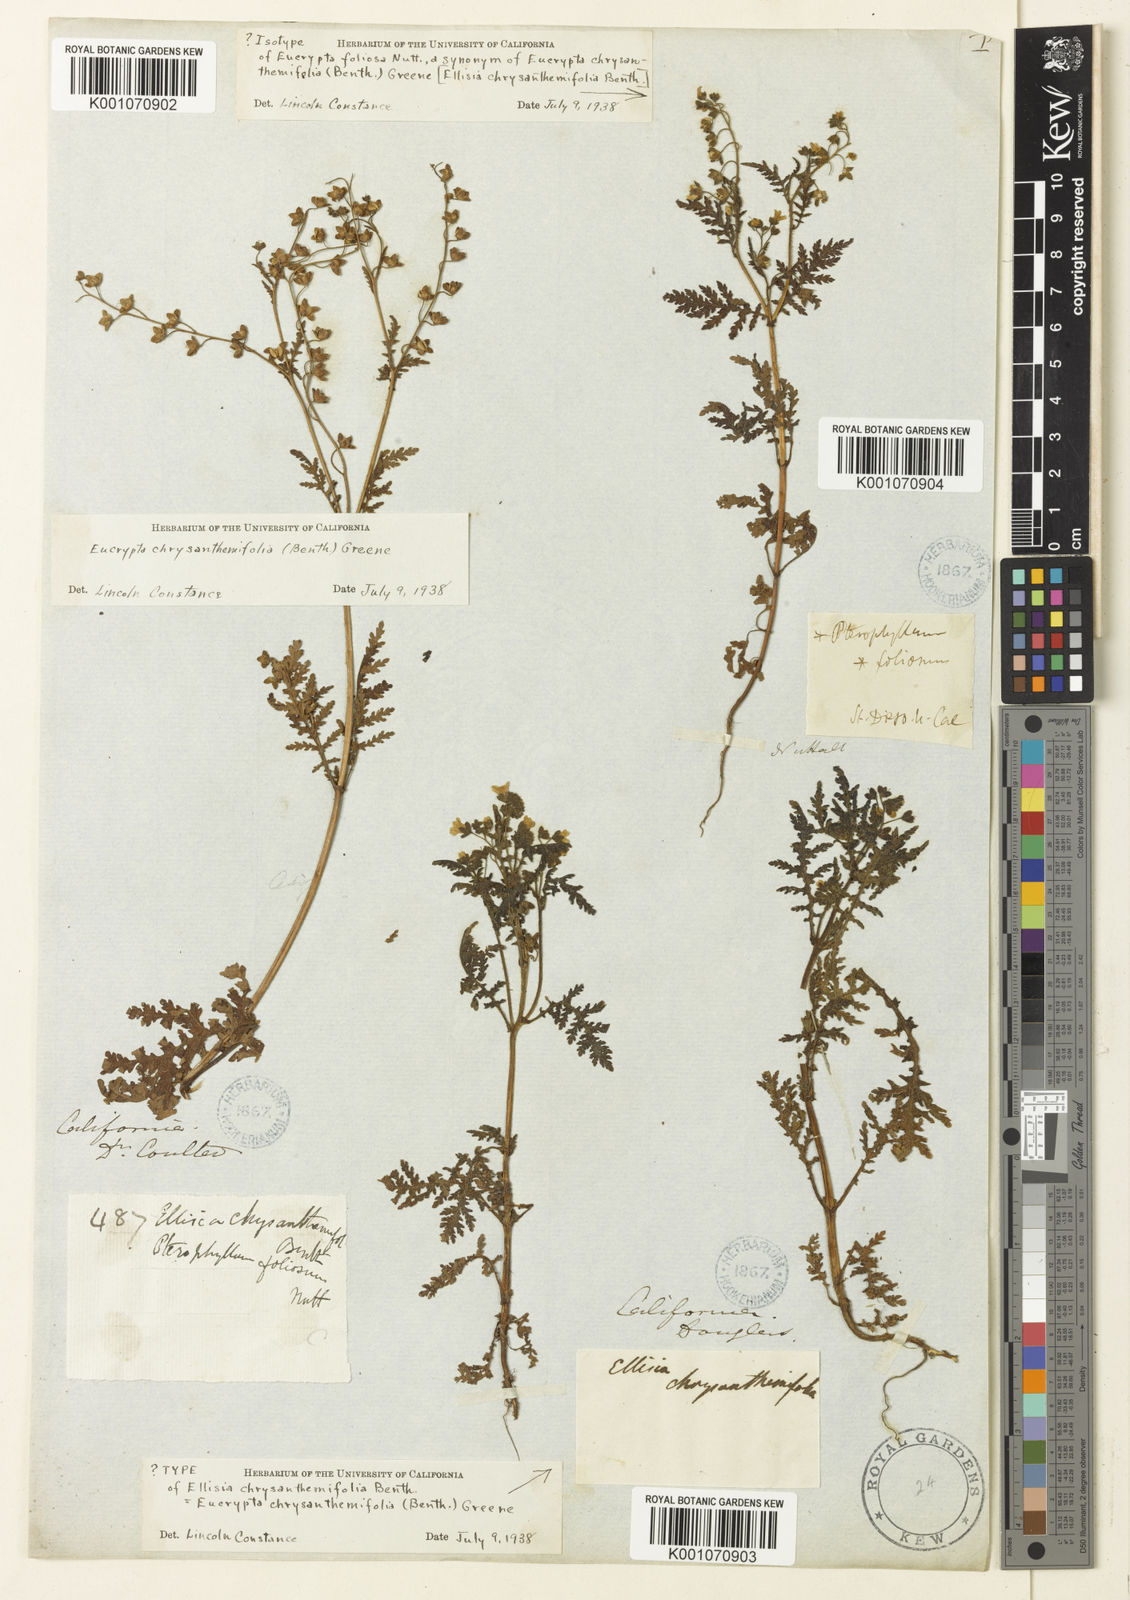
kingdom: Plantae
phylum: Tracheophyta
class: Magnoliopsida
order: Boraginales
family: Hydrophyllaceae
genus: Eucrypta
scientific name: Eucrypta chrysanthemifolia
